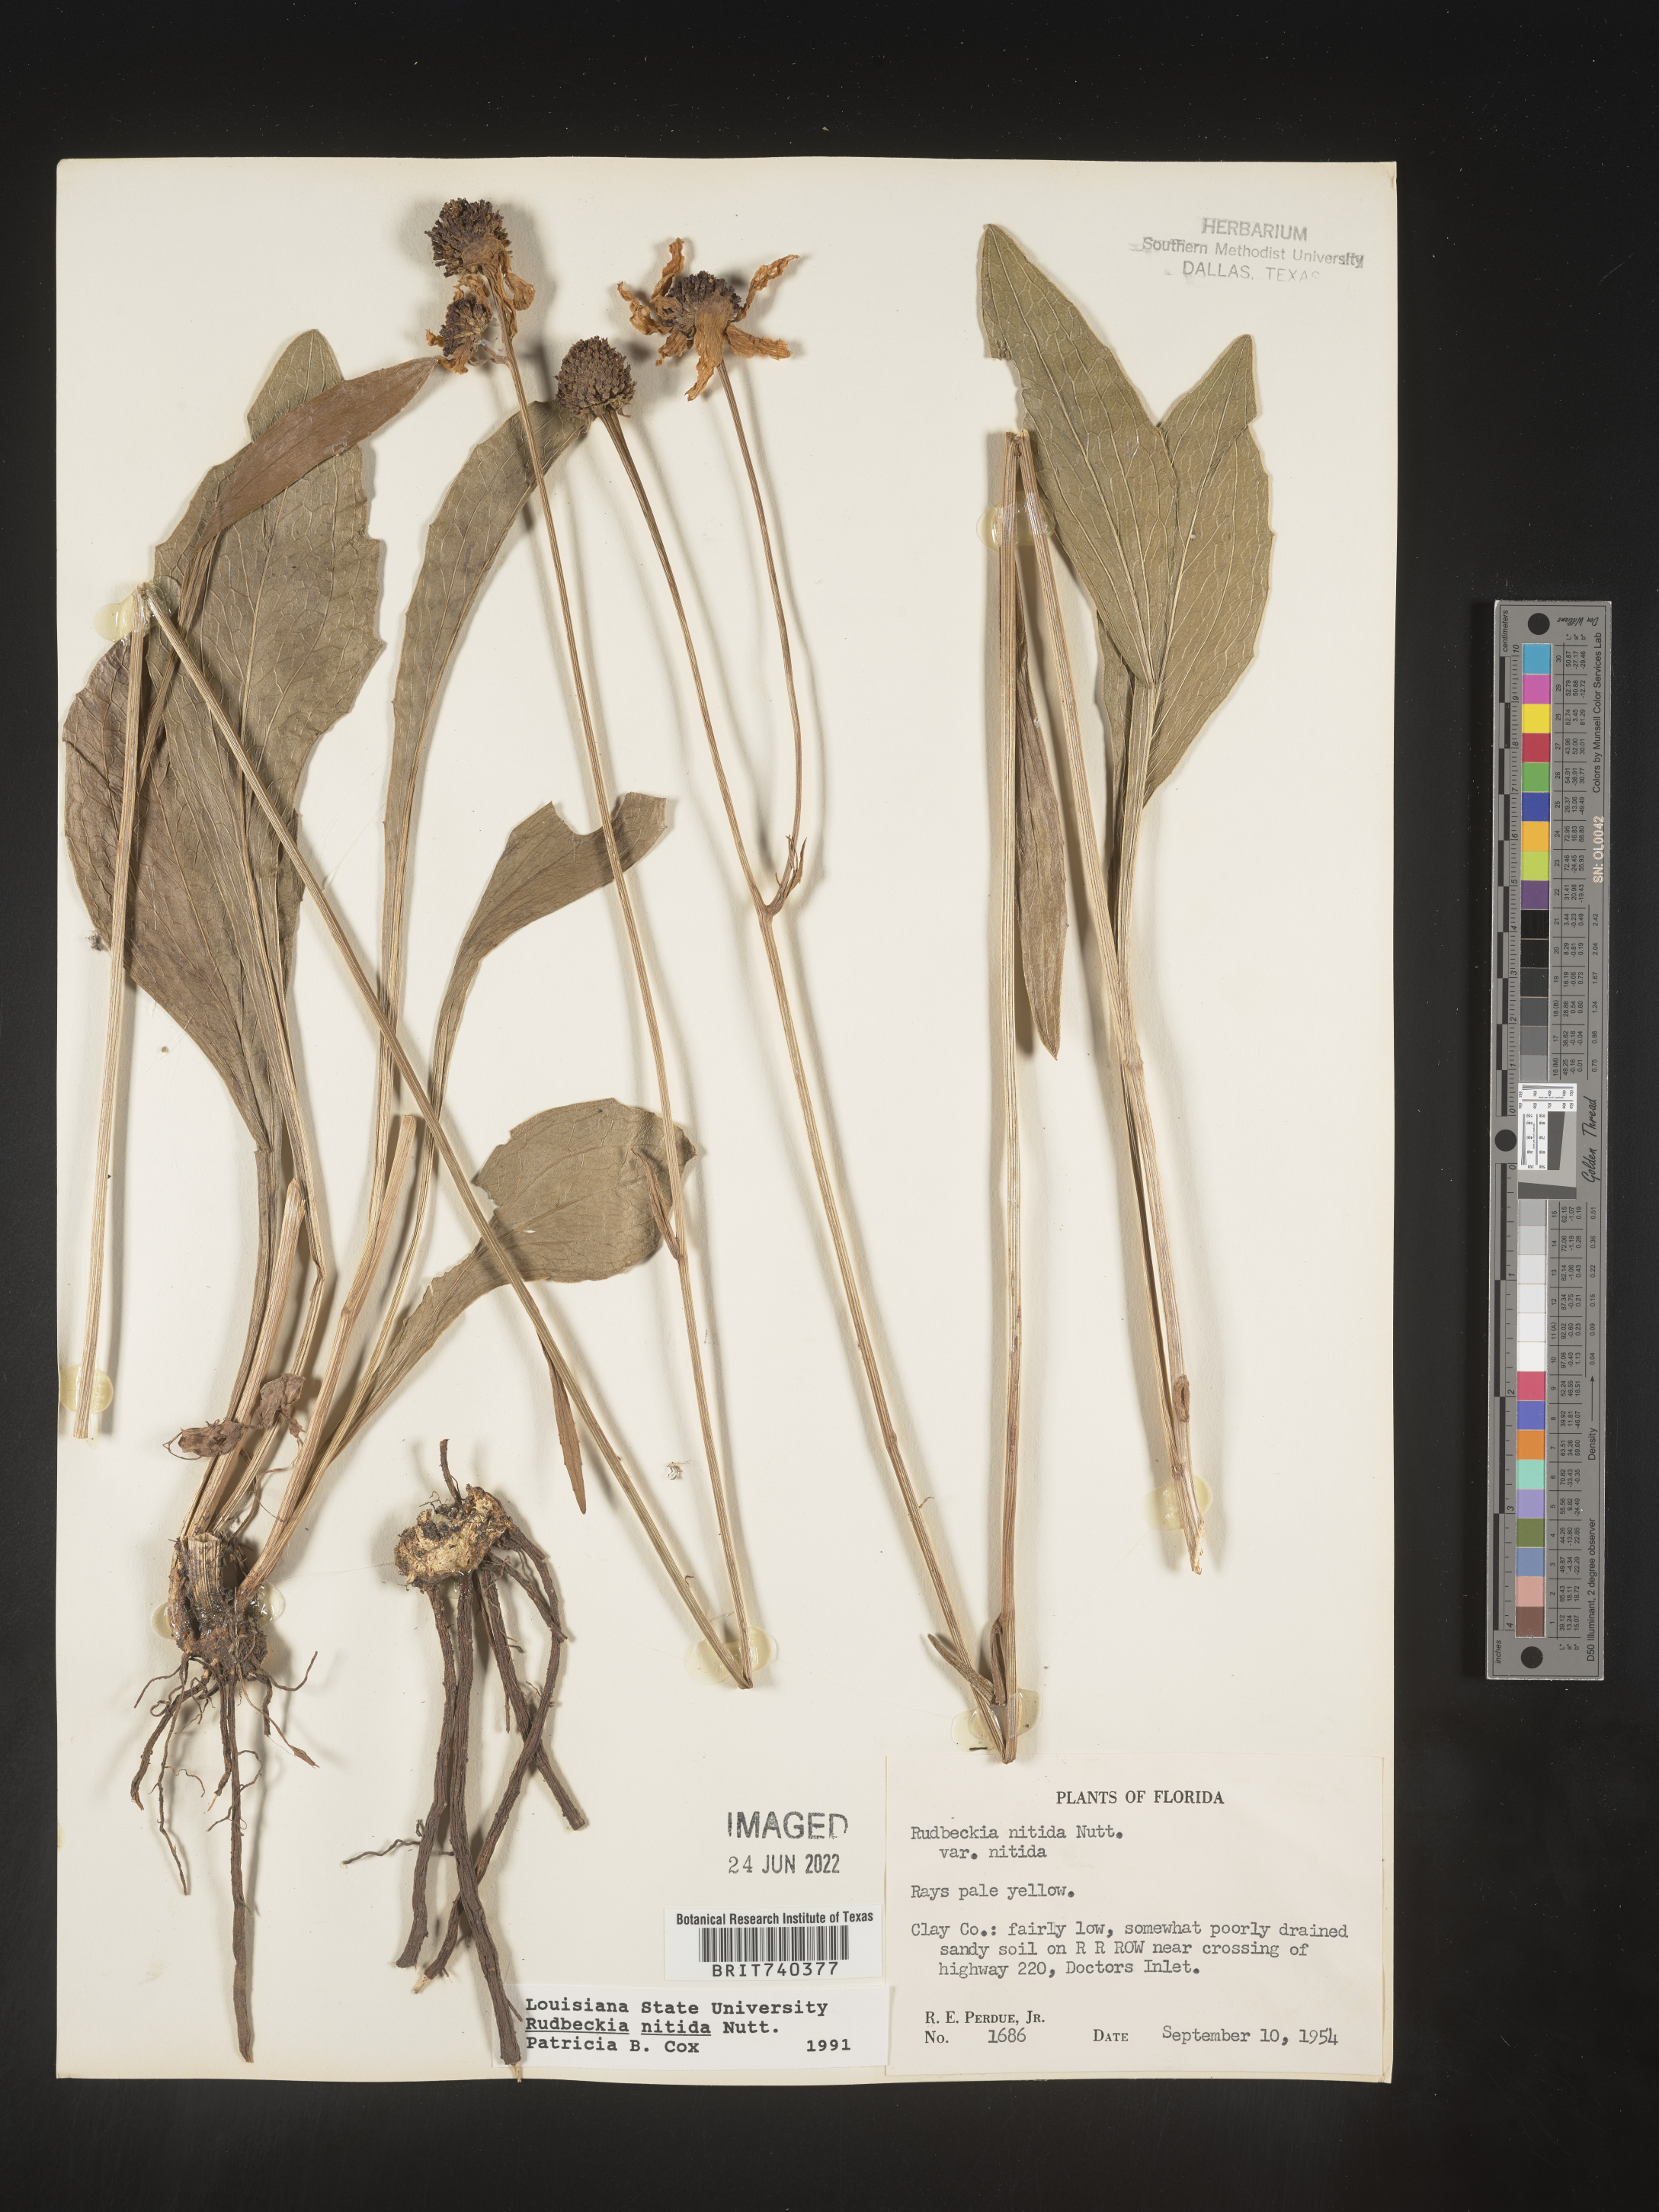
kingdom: Plantae
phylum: Tracheophyta
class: Magnoliopsida
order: Asterales
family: Asteraceae
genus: Rudbeckia
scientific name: Rudbeckia nitida
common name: Black-eyed-susan
